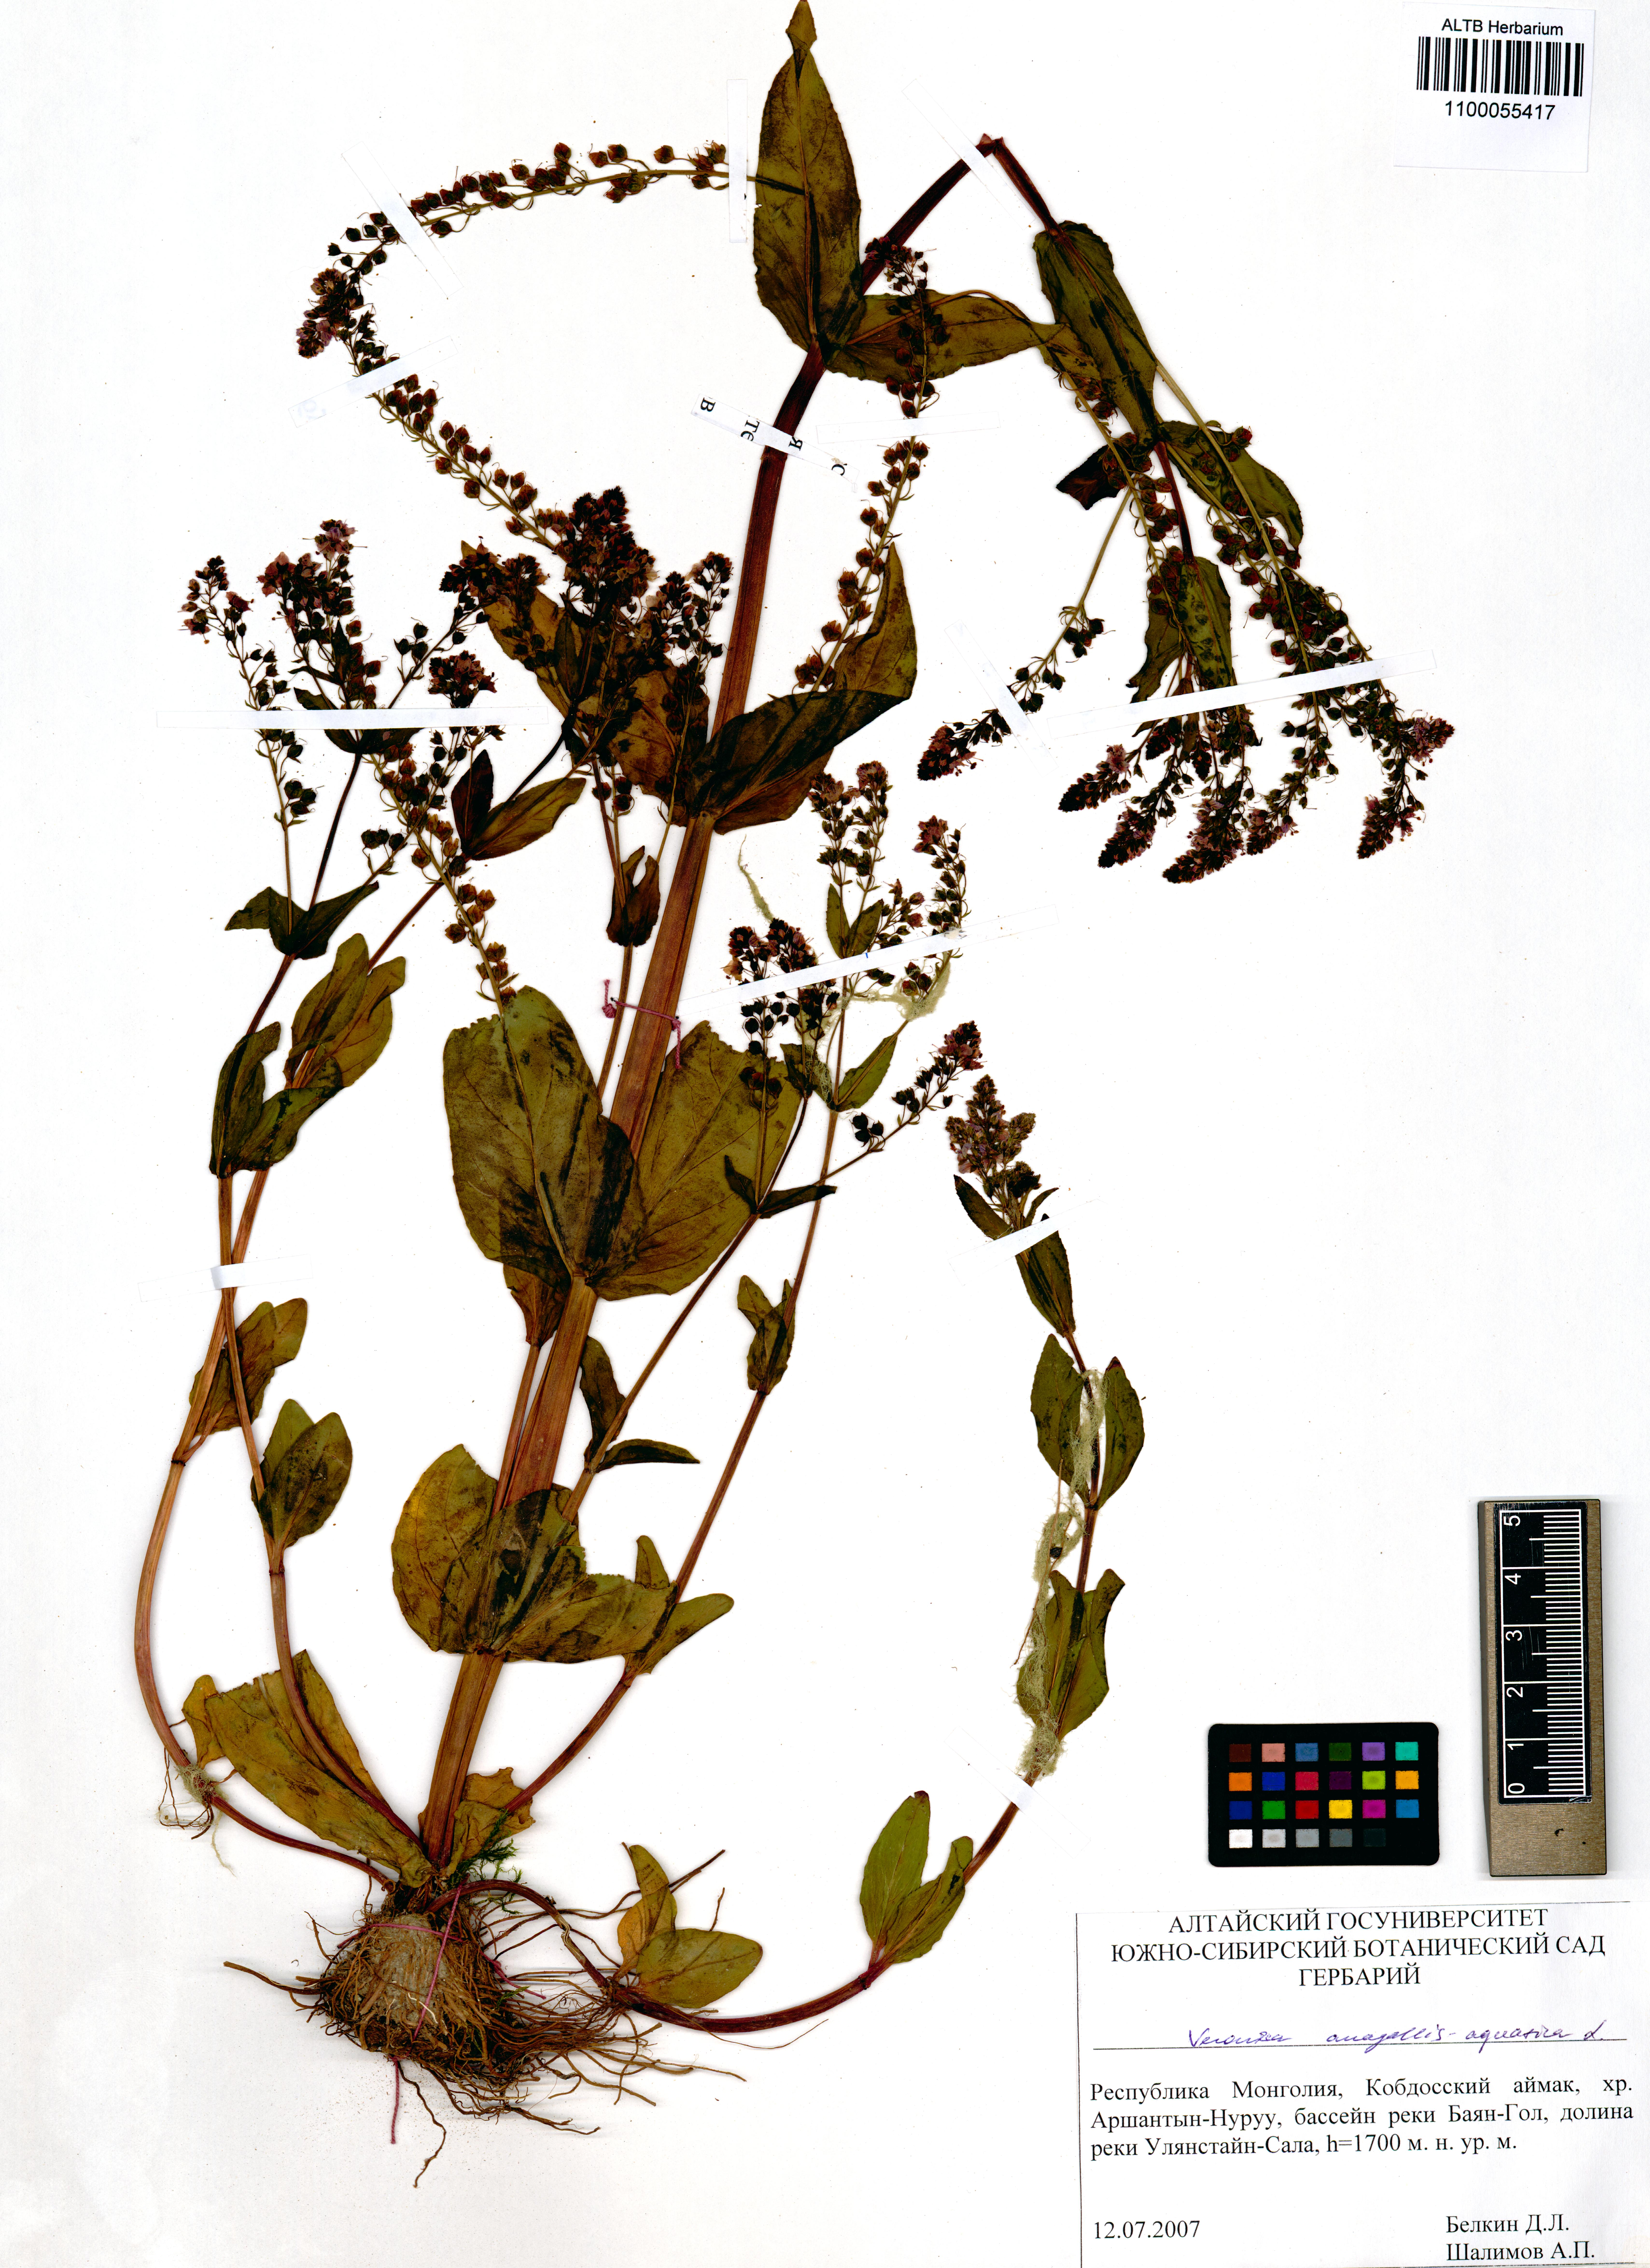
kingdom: Plantae
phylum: Tracheophyta
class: Magnoliopsida
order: Lamiales
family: Plantaginaceae
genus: Veronica
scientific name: Veronica anagallis-aquatica
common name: Water speedwell
